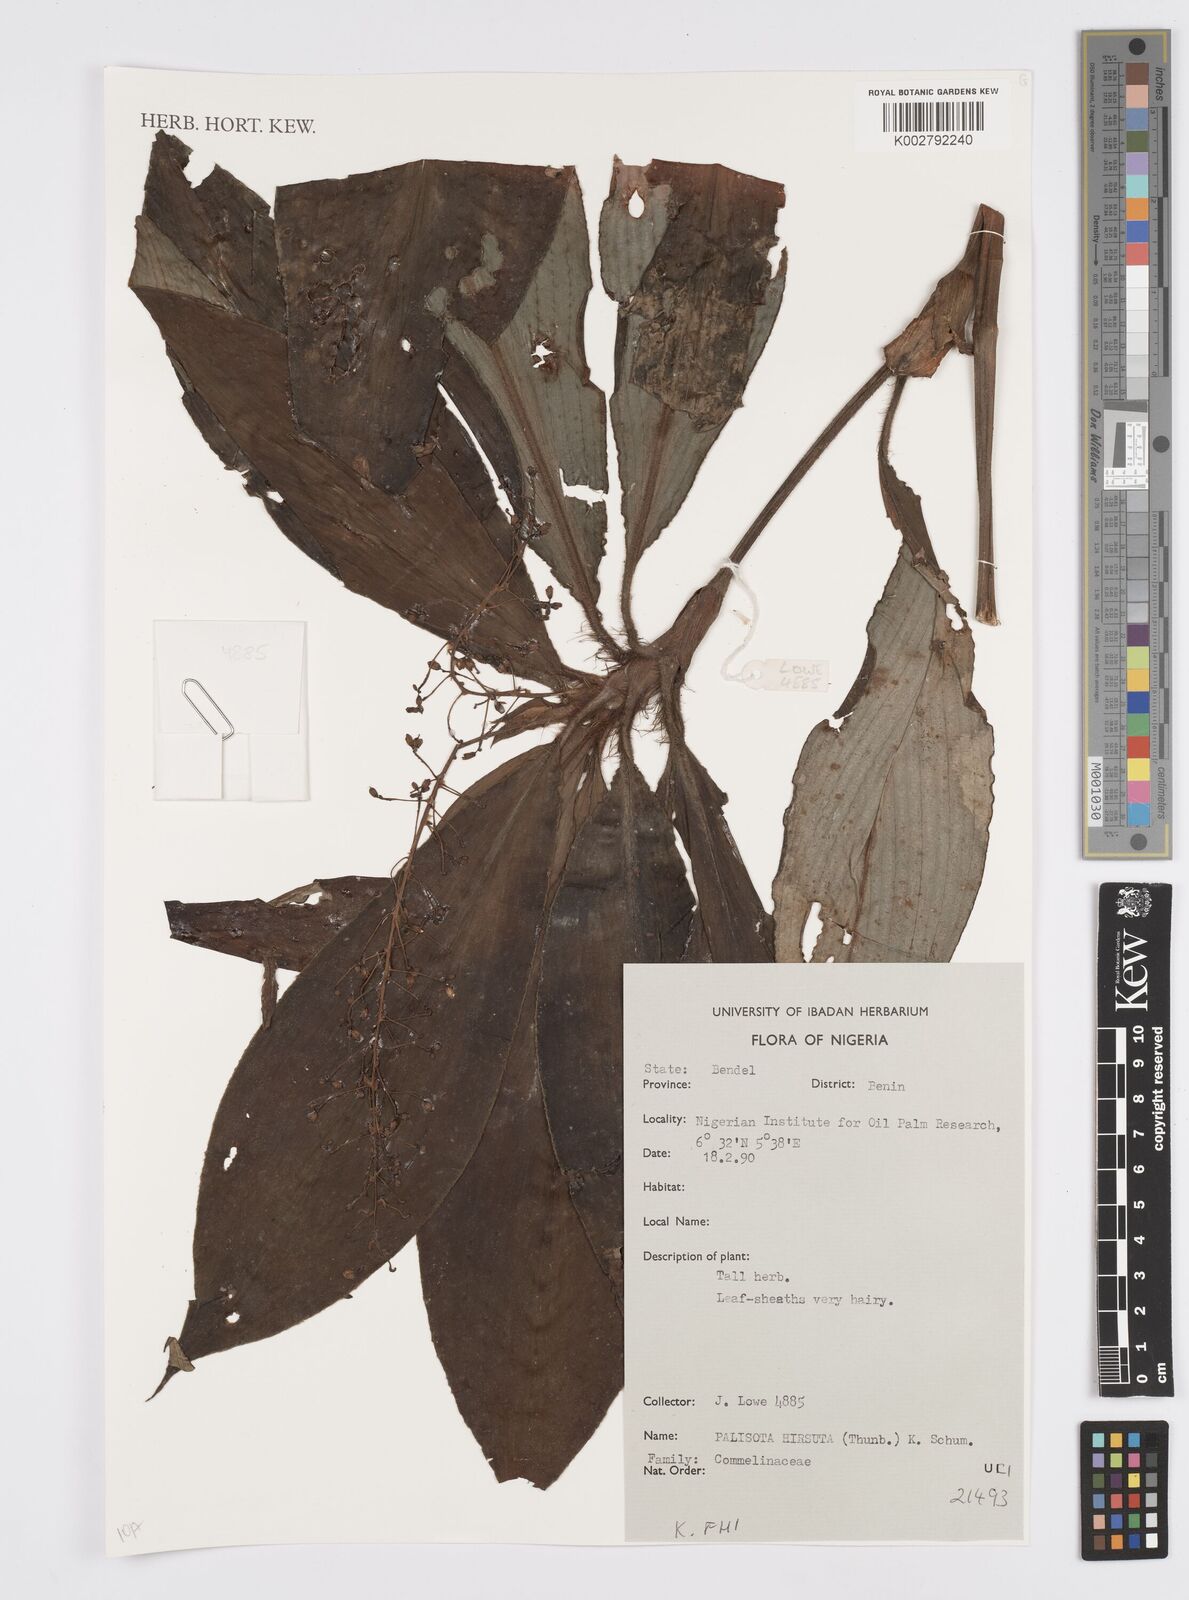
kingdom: Plantae
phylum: Tracheophyta
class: Liliopsida
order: Commelinales
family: Commelinaceae
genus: Palisota
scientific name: Palisota hirsuta
